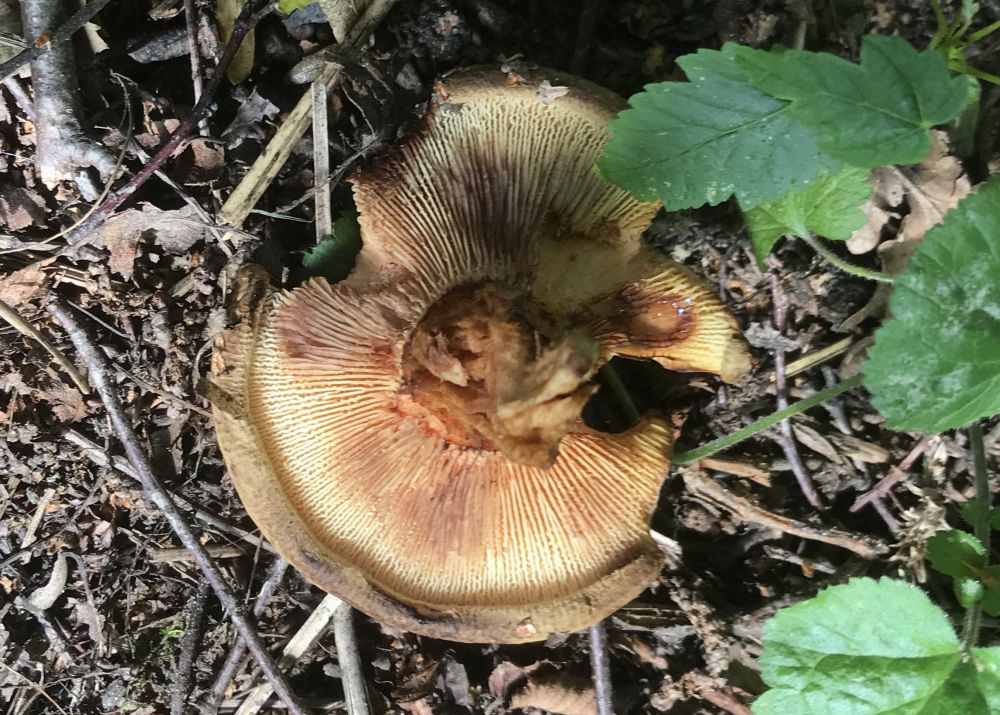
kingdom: Fungi
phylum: Basidiomycota
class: Agaricomycetes
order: Boletales
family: Paxillaceae
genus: Paxillus
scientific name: Paxillus rubicundulus
